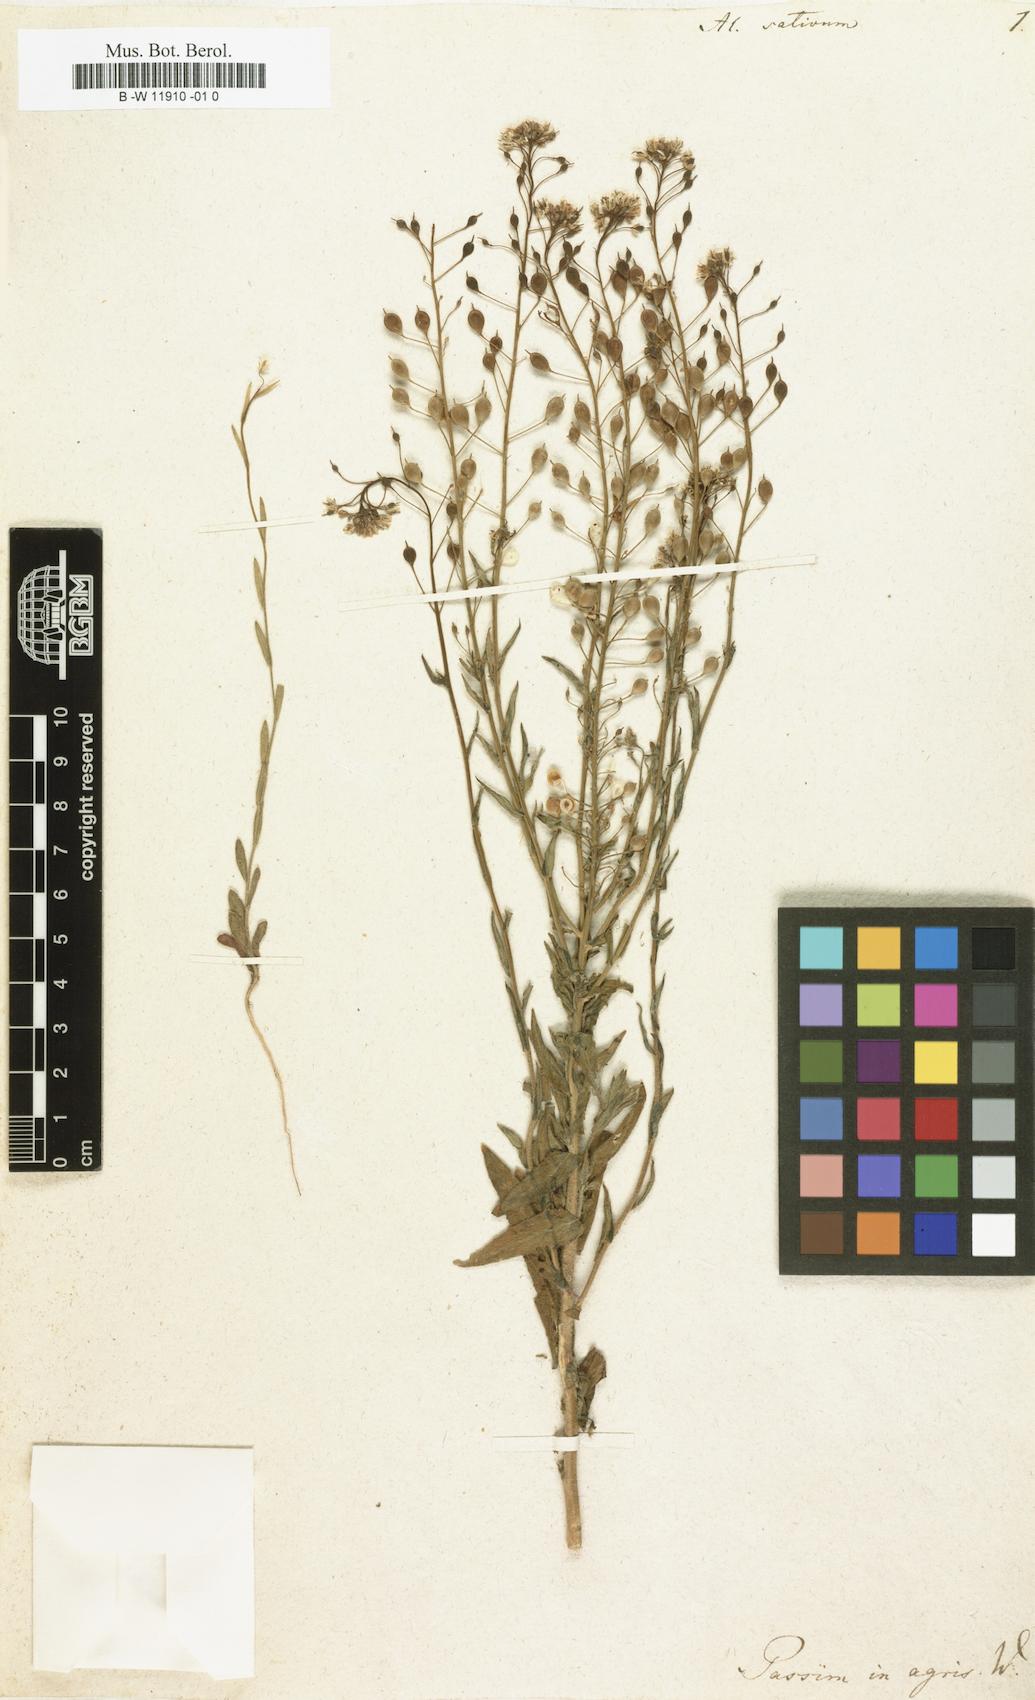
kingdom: Plantae
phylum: Tracheophyta
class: Magnoliopsida
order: Brassicales
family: Brassicaceae
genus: Camelina
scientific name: Camelina sativa
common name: Gold-of-pleasure
